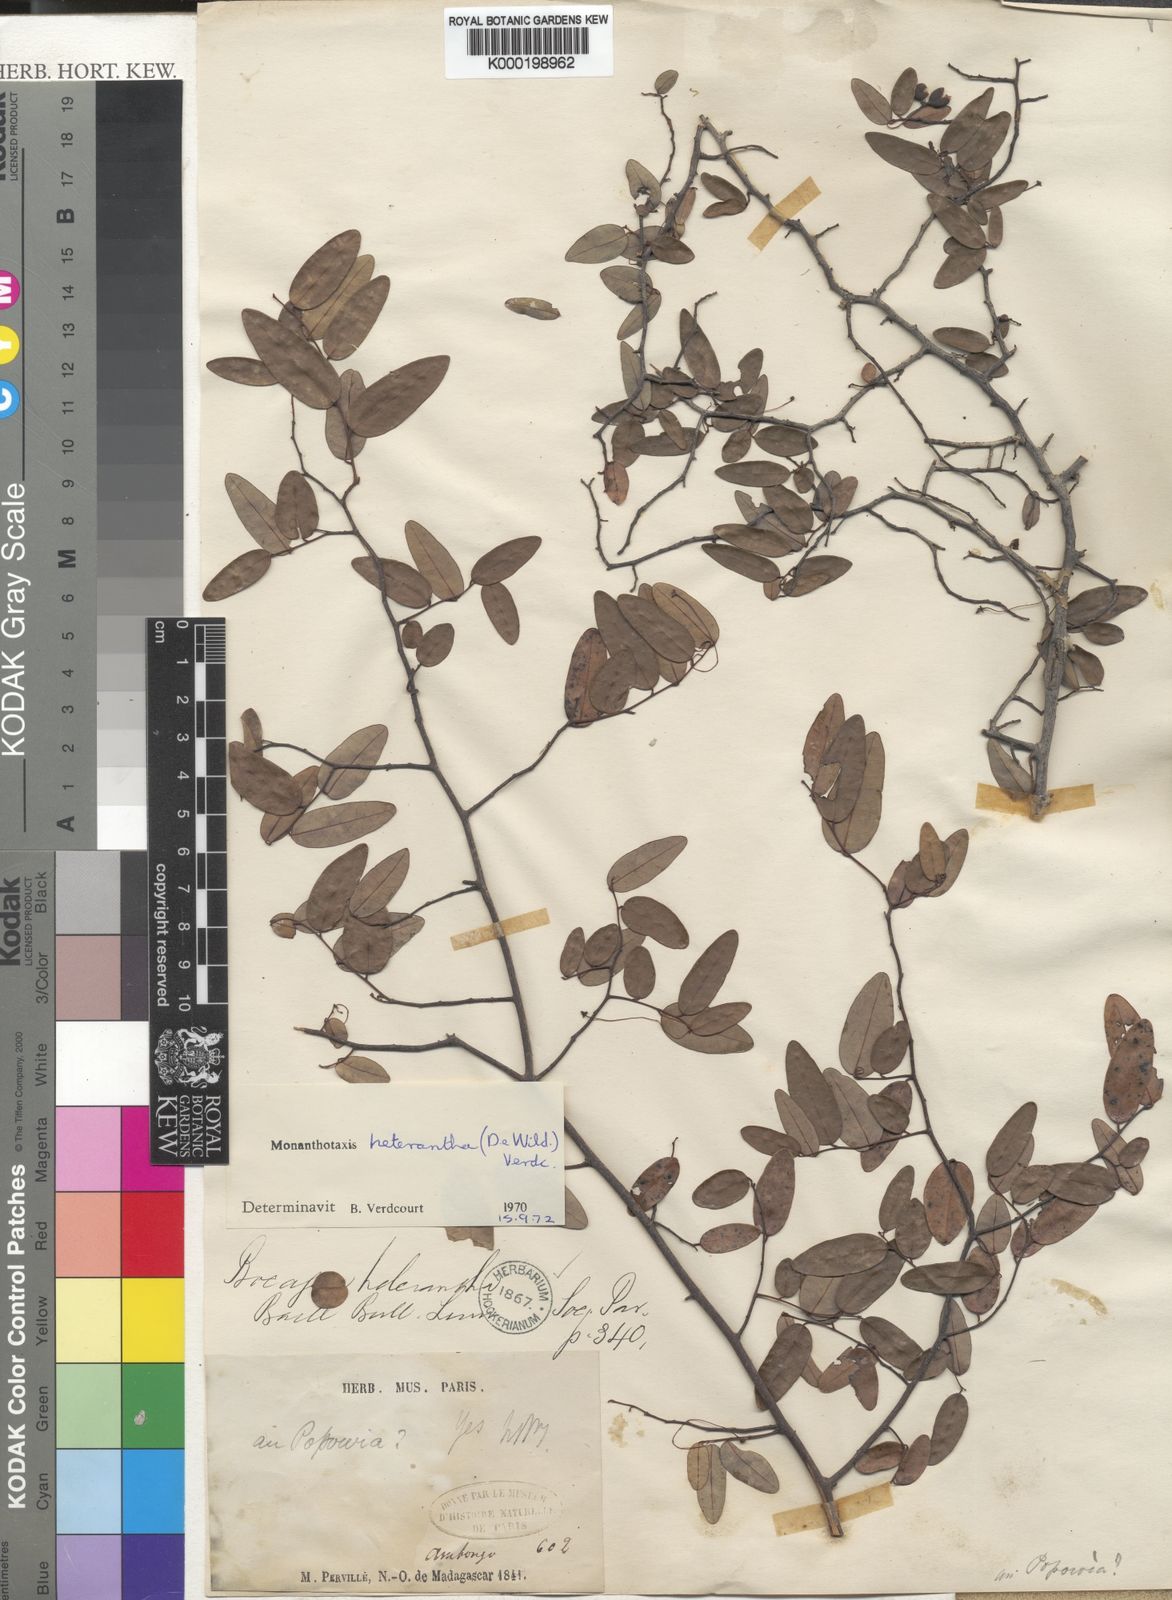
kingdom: Plantae
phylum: Tracheophyta
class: Magnoliopsida
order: Magnoliales
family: Annonaceae
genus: Monanthotaxis
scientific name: Monanthotaxis heterantha
